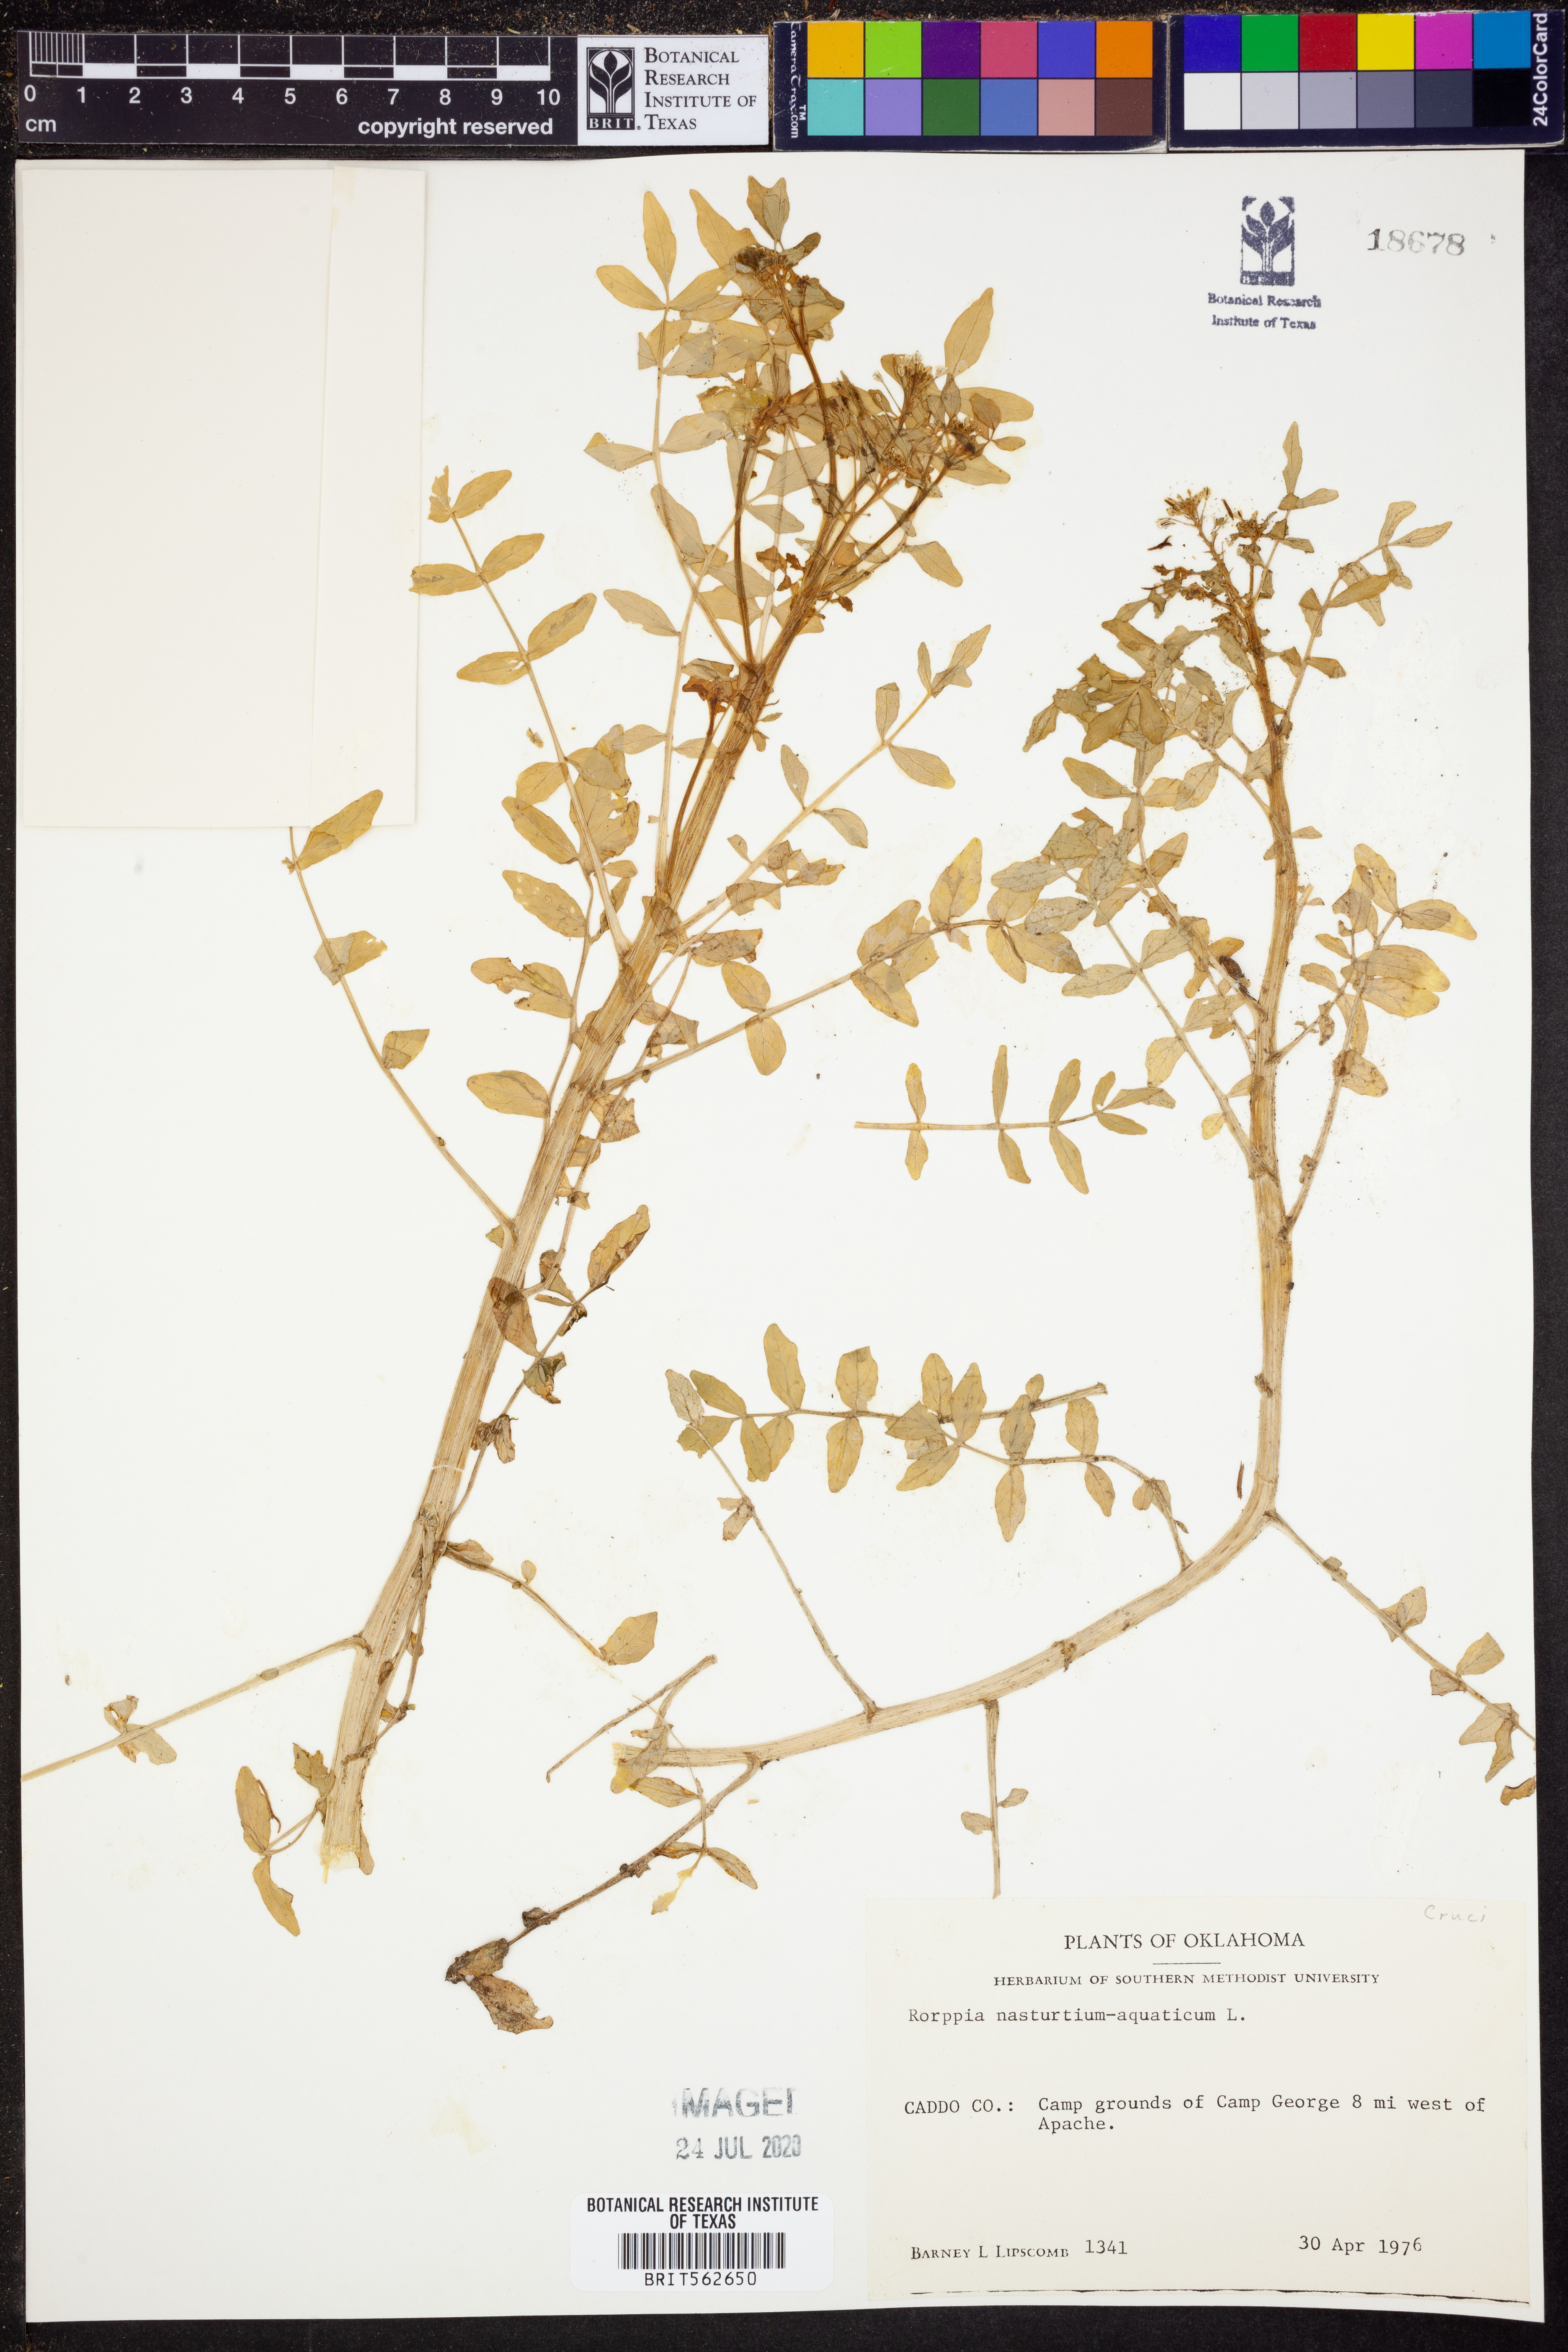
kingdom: Plantae
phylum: Tracheophyta
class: Magnoliopsida
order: Brassicales
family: Brassicaceae
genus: Nasturtium
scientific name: Nasturtium officinale
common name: Watercress
